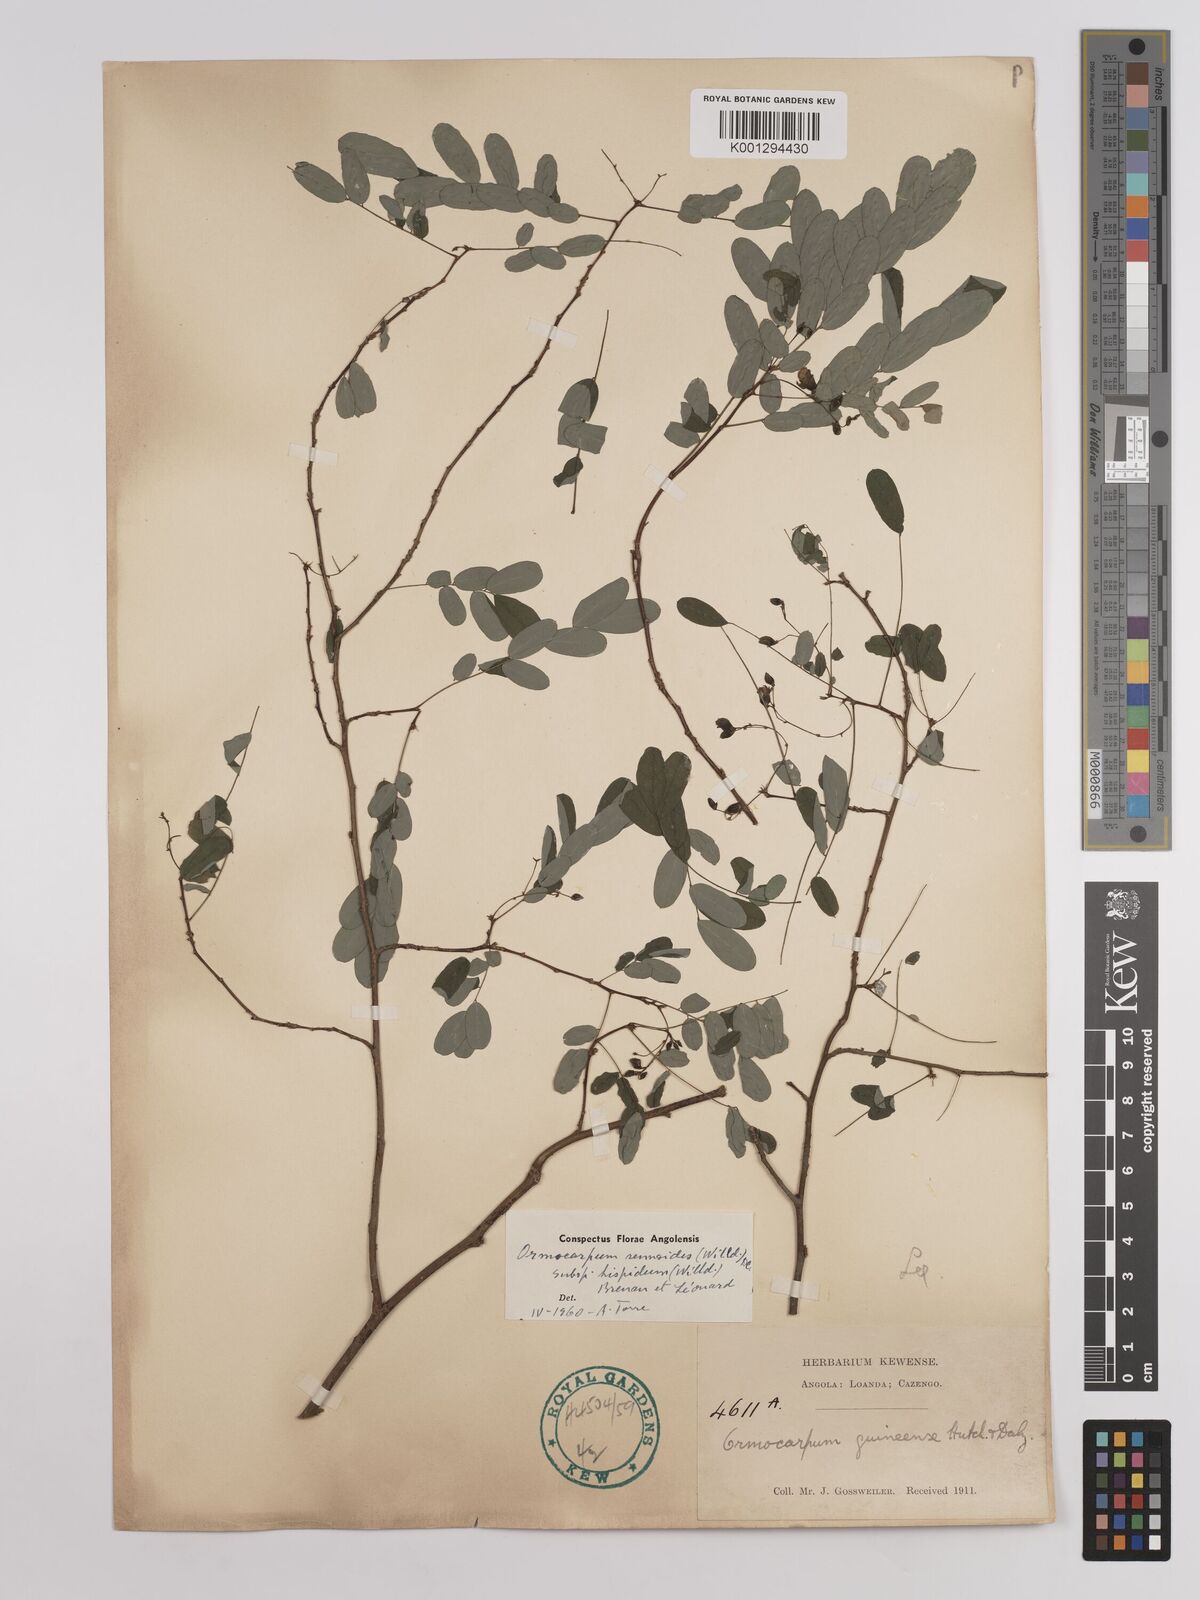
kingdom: Plantae
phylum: Tracheophyta
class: Magnoliopsida
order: Fabales
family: Fabaceae
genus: Ormocarpum
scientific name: Ormocarpum sennoides
